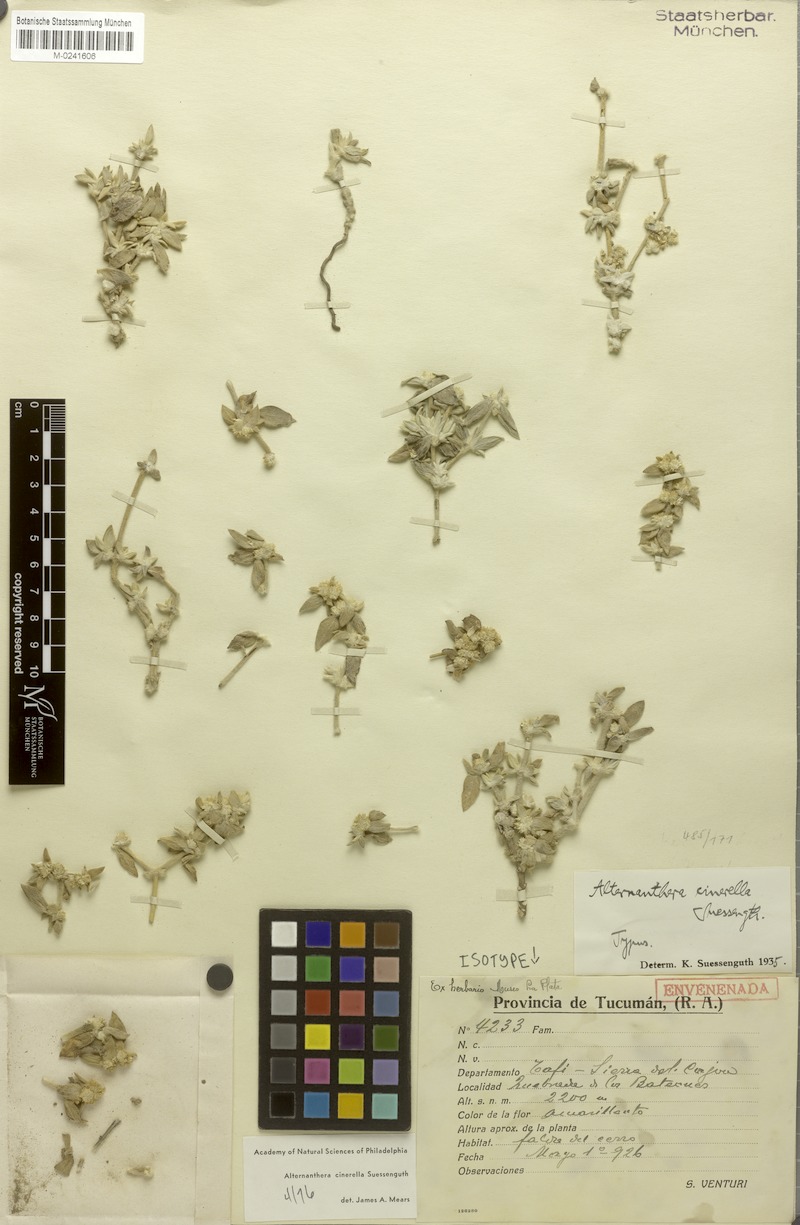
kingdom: Plantae
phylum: Tracheophyta
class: Magnoliopsida
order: Caryophyllales
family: Amaranthaceae
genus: Alternanthera
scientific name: Alternanthera cinerella
